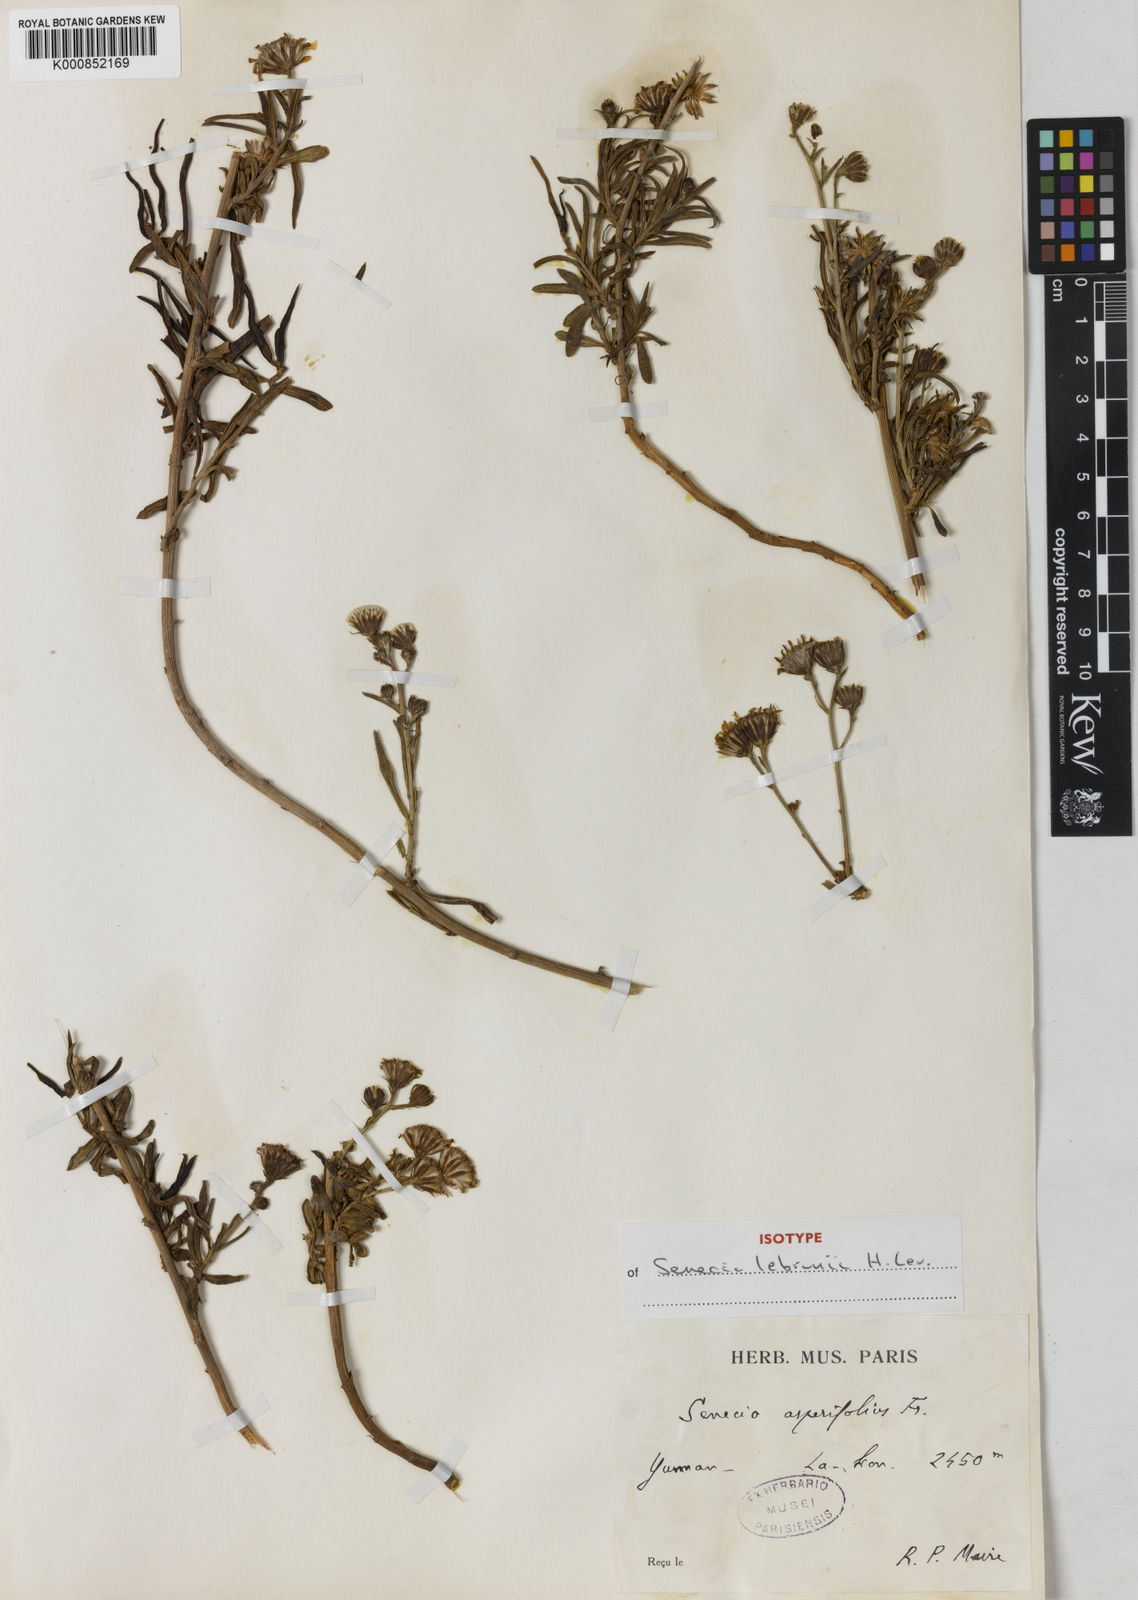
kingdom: Plantae
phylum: Tracheophyta
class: Magnoliopsida
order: Asterales
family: Asteraceae
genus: Senecio
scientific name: Senecio asperifolius
